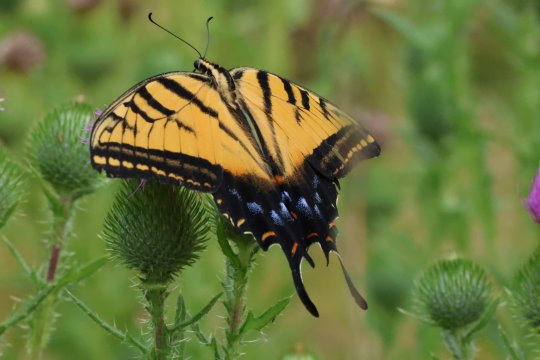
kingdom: Animalia
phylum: Arthropoda
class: Insecta
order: Lepidoptera
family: Papilionidae
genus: Papilio
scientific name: Papilio multicaudata
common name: Two-tailed Swallowtail
